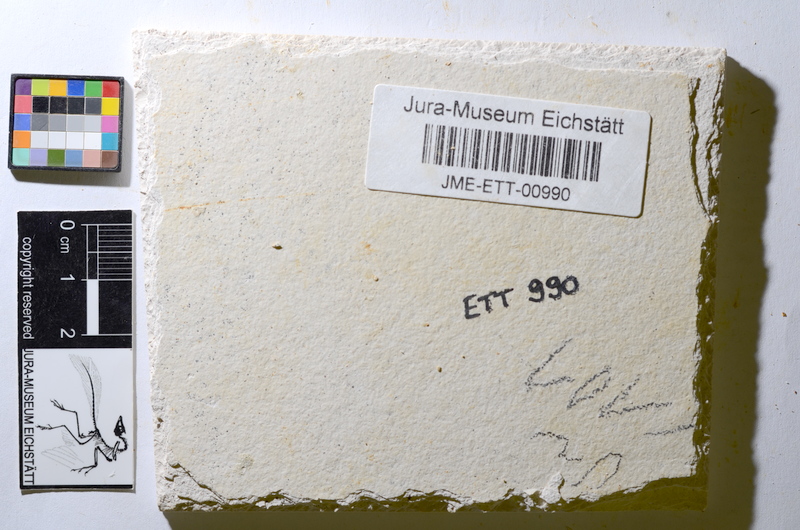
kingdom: Animalia
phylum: Chordata
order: Salmoniformes
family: Orthogonikleithridae
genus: Orthogonikleithrus
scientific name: Orthogonikleithrus hoelli
